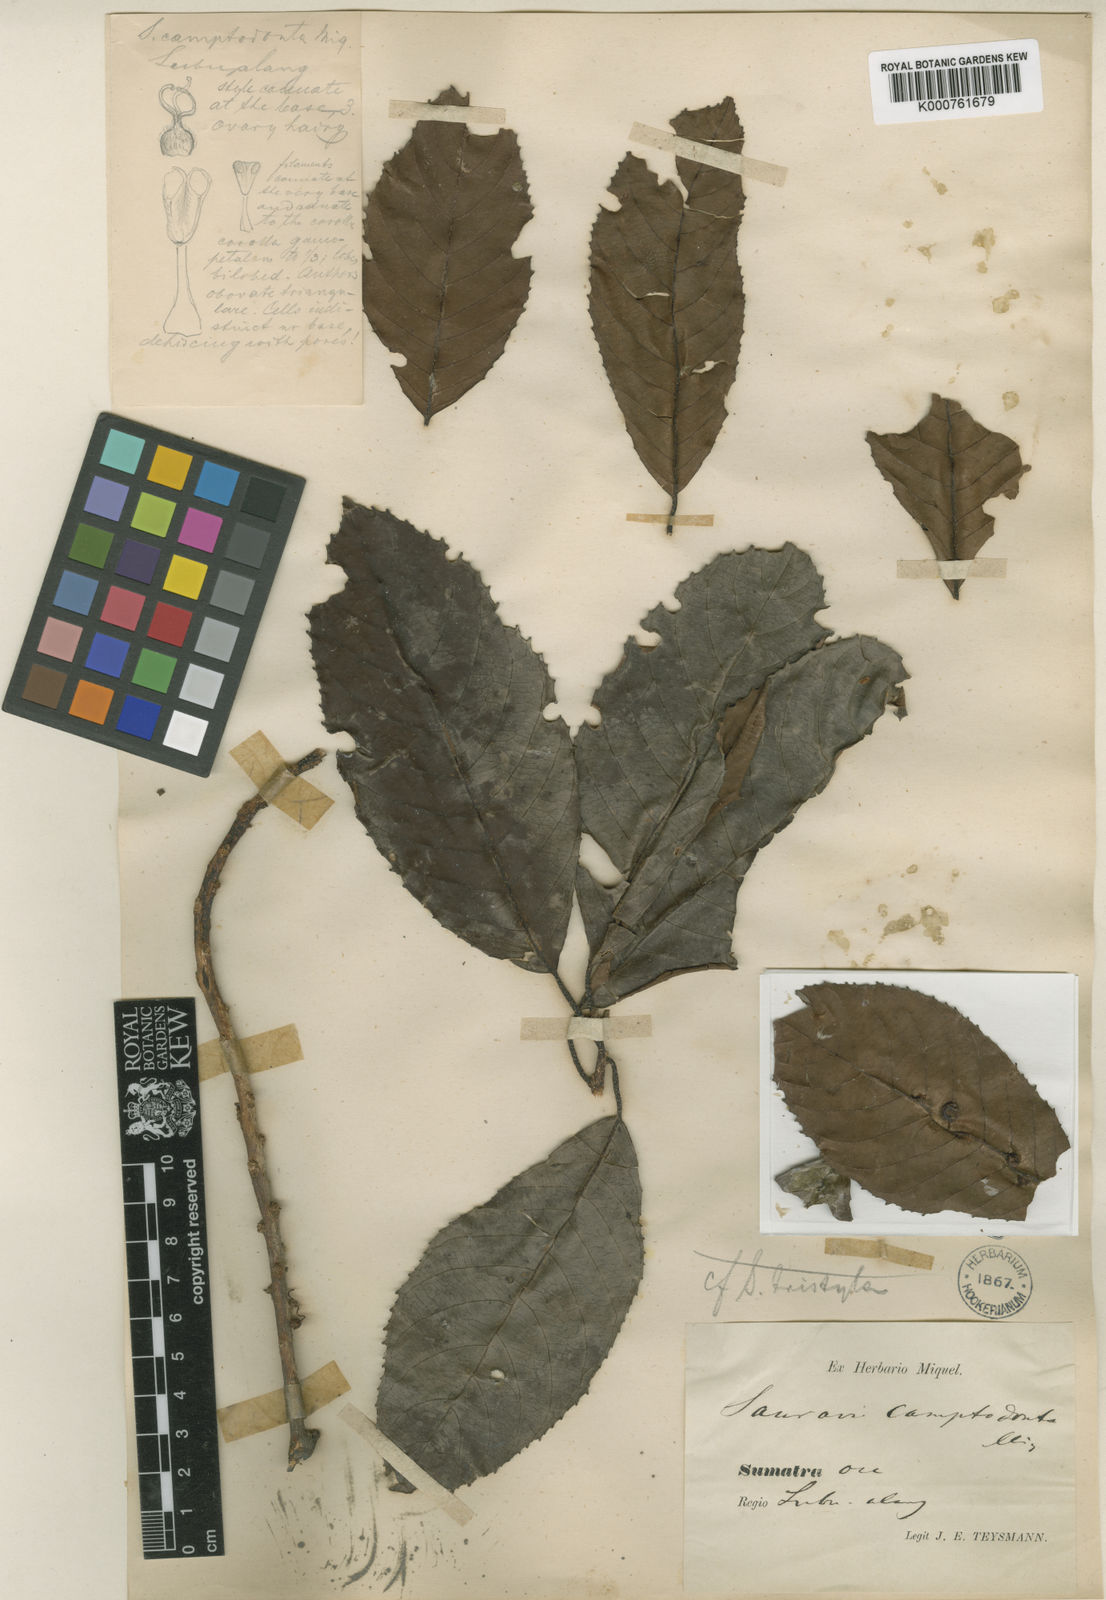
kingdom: Plantae
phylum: Tracheophyta
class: Magnoliopsida
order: Ericales
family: Actinidiaceae
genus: Saurauia
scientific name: Saurauia tristyla
